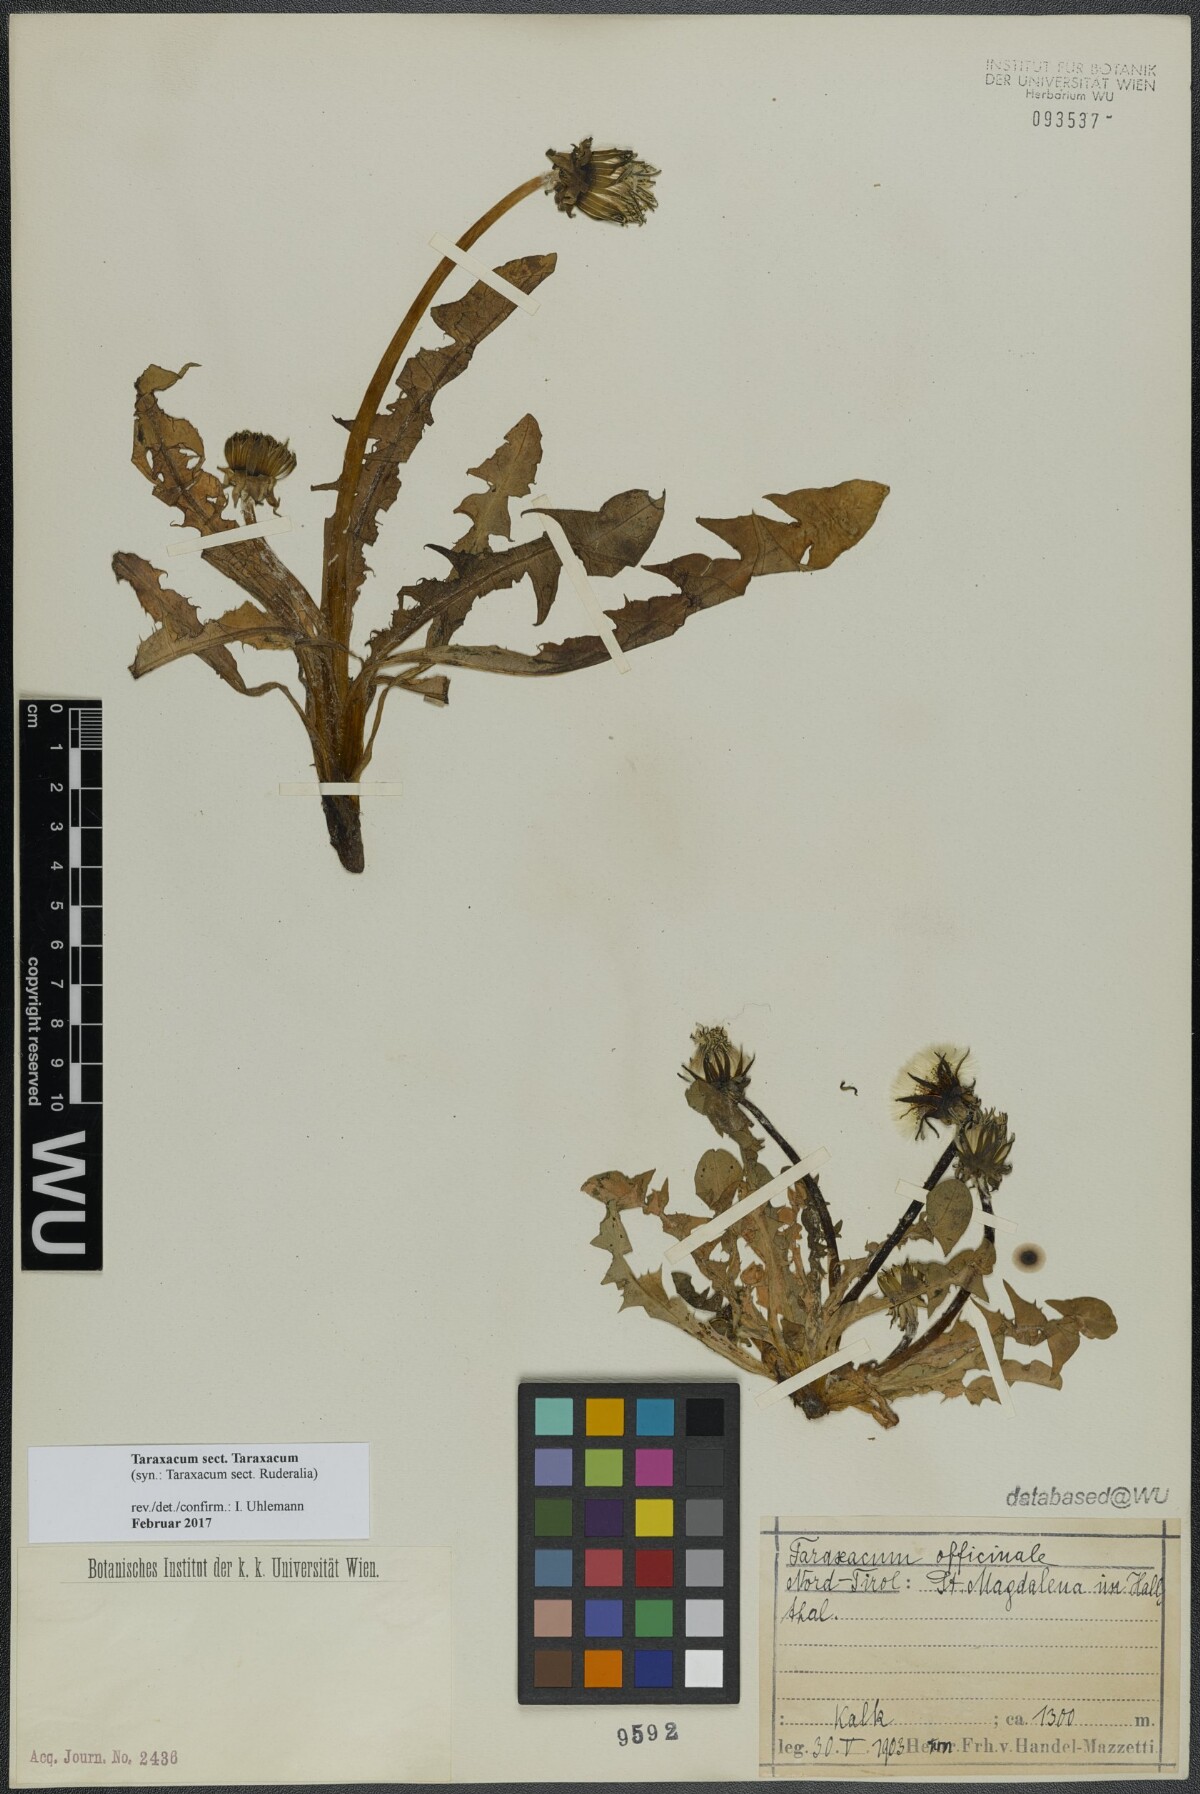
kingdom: Plantae
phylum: Tracheophyta
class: Magnoliopsida
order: Asterales
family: Asteraceae
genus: Taraxacum
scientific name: Taraxacum
